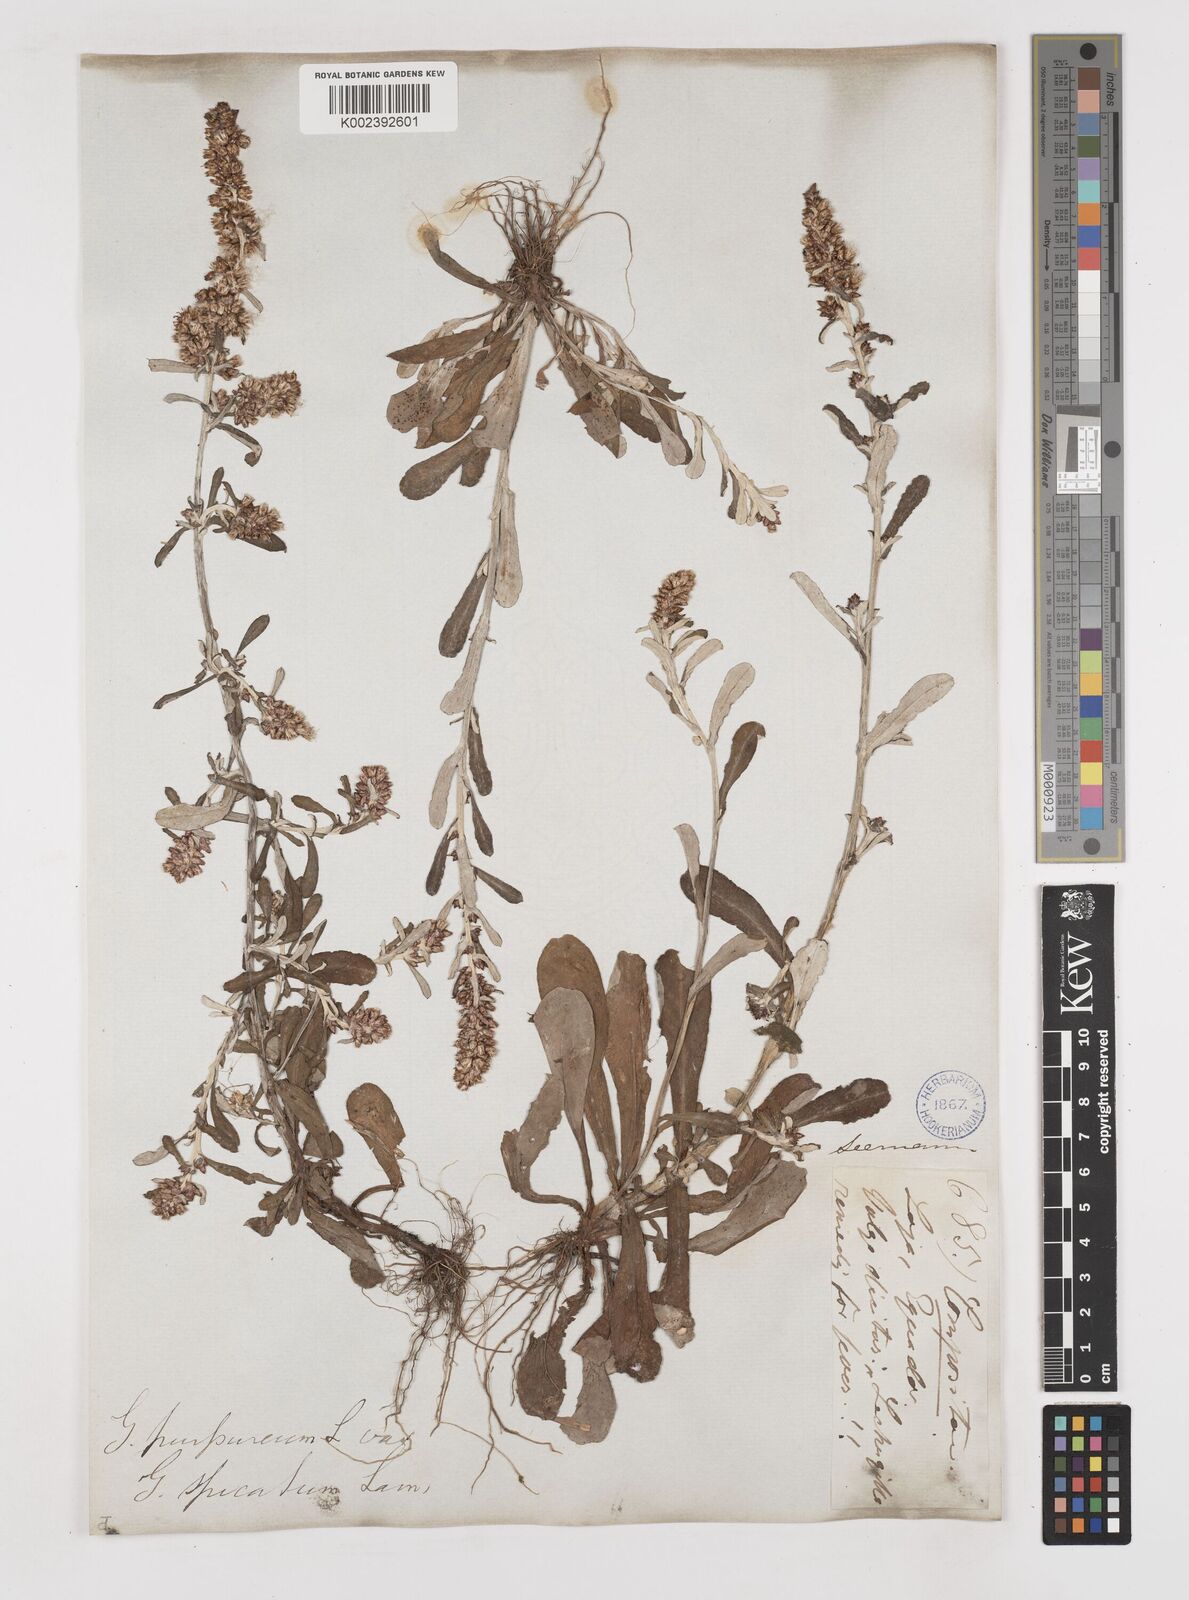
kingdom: Plantae
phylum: Tracheophyta
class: Magnoliopsida
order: Asterales
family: Asteraceae
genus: Gamochaeta
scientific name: Gamochaeta americana
